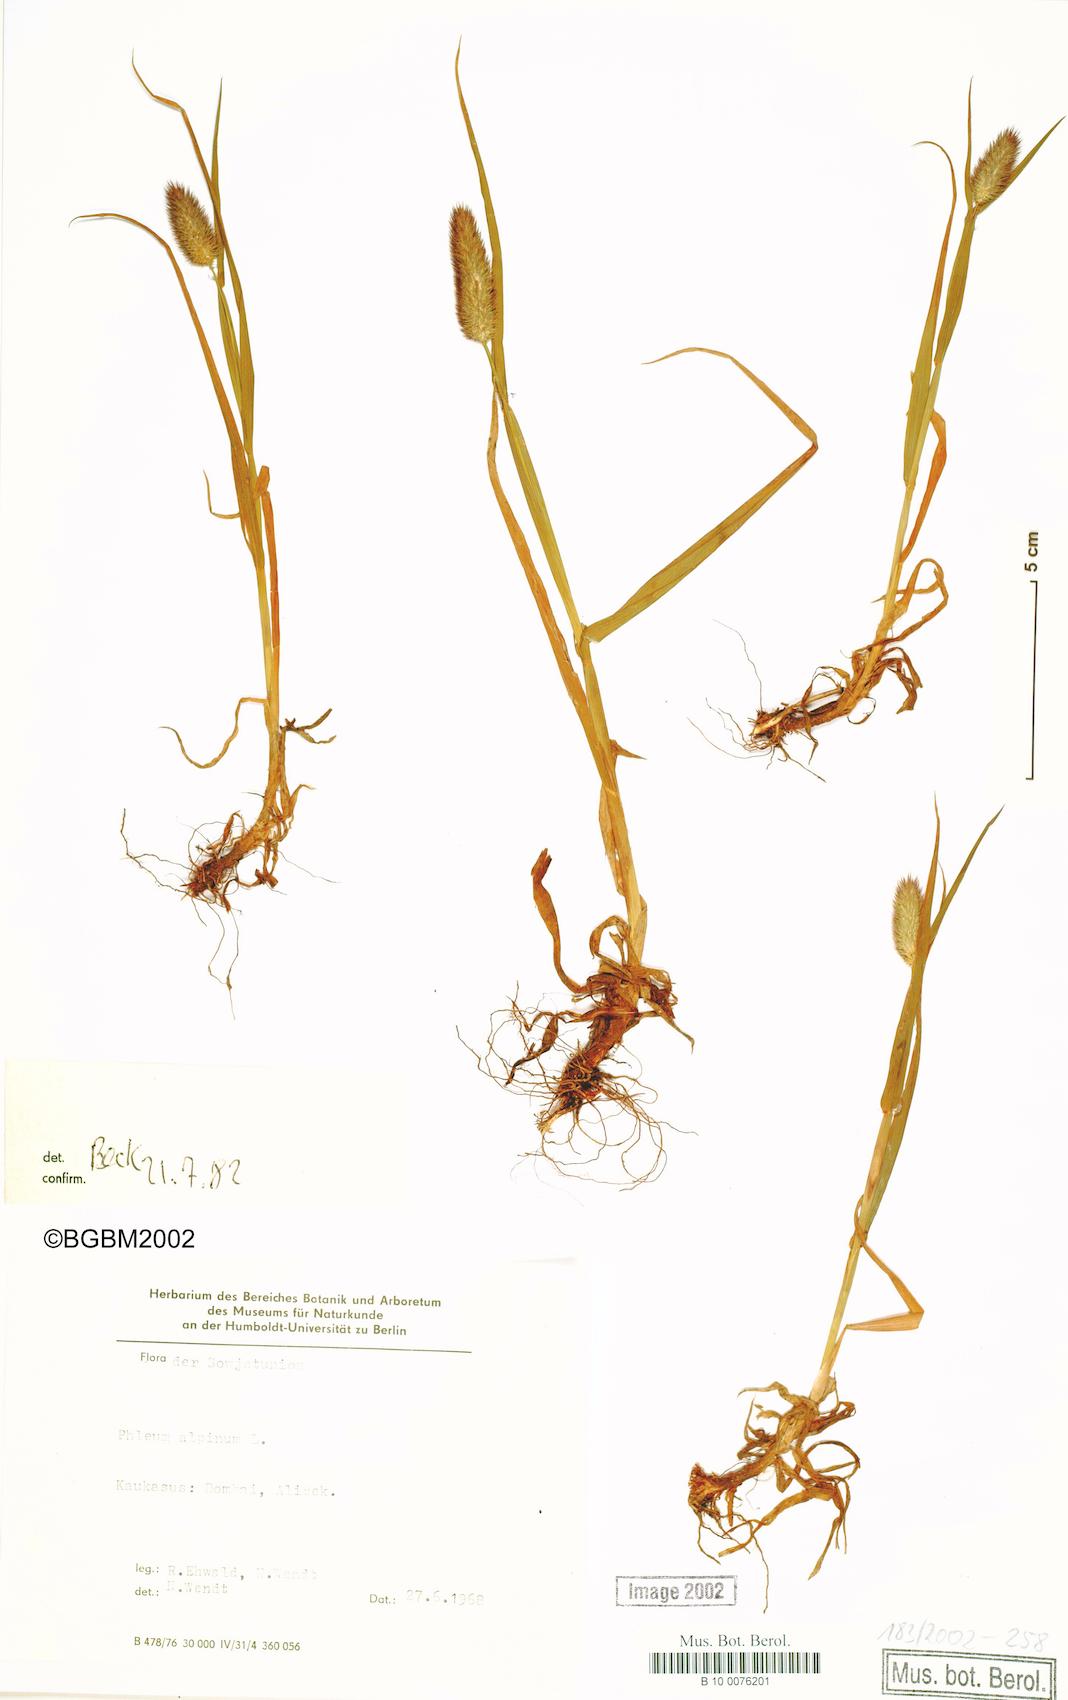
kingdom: Plantae
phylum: Tracheophyta
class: Liliopsida
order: Poales
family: Poaceae
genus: Phleum
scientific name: Phleum alpinum
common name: Alpine cat's-tail
